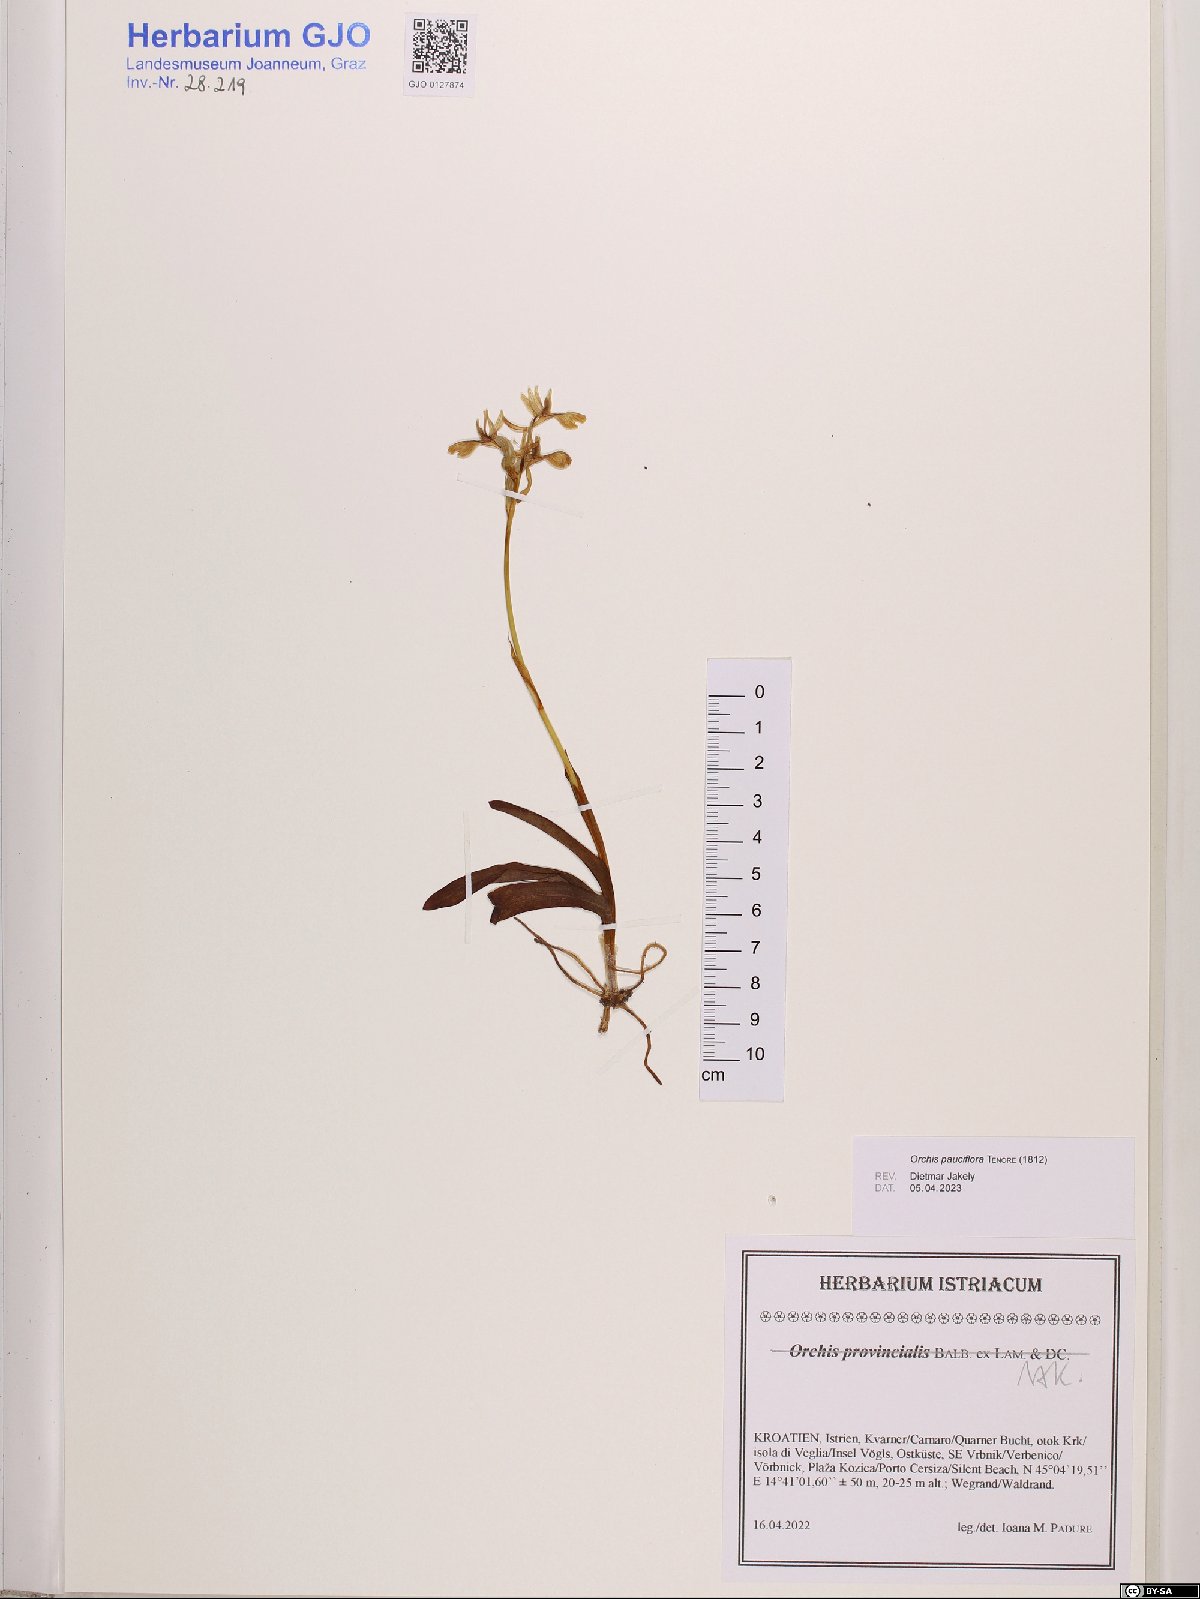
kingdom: Plantae
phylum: Tracheophyta
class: Liliopsida
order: Asparagales
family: Orchidaceae
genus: Orchis
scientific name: Orchis pauciflora
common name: Few-flowered orchid
